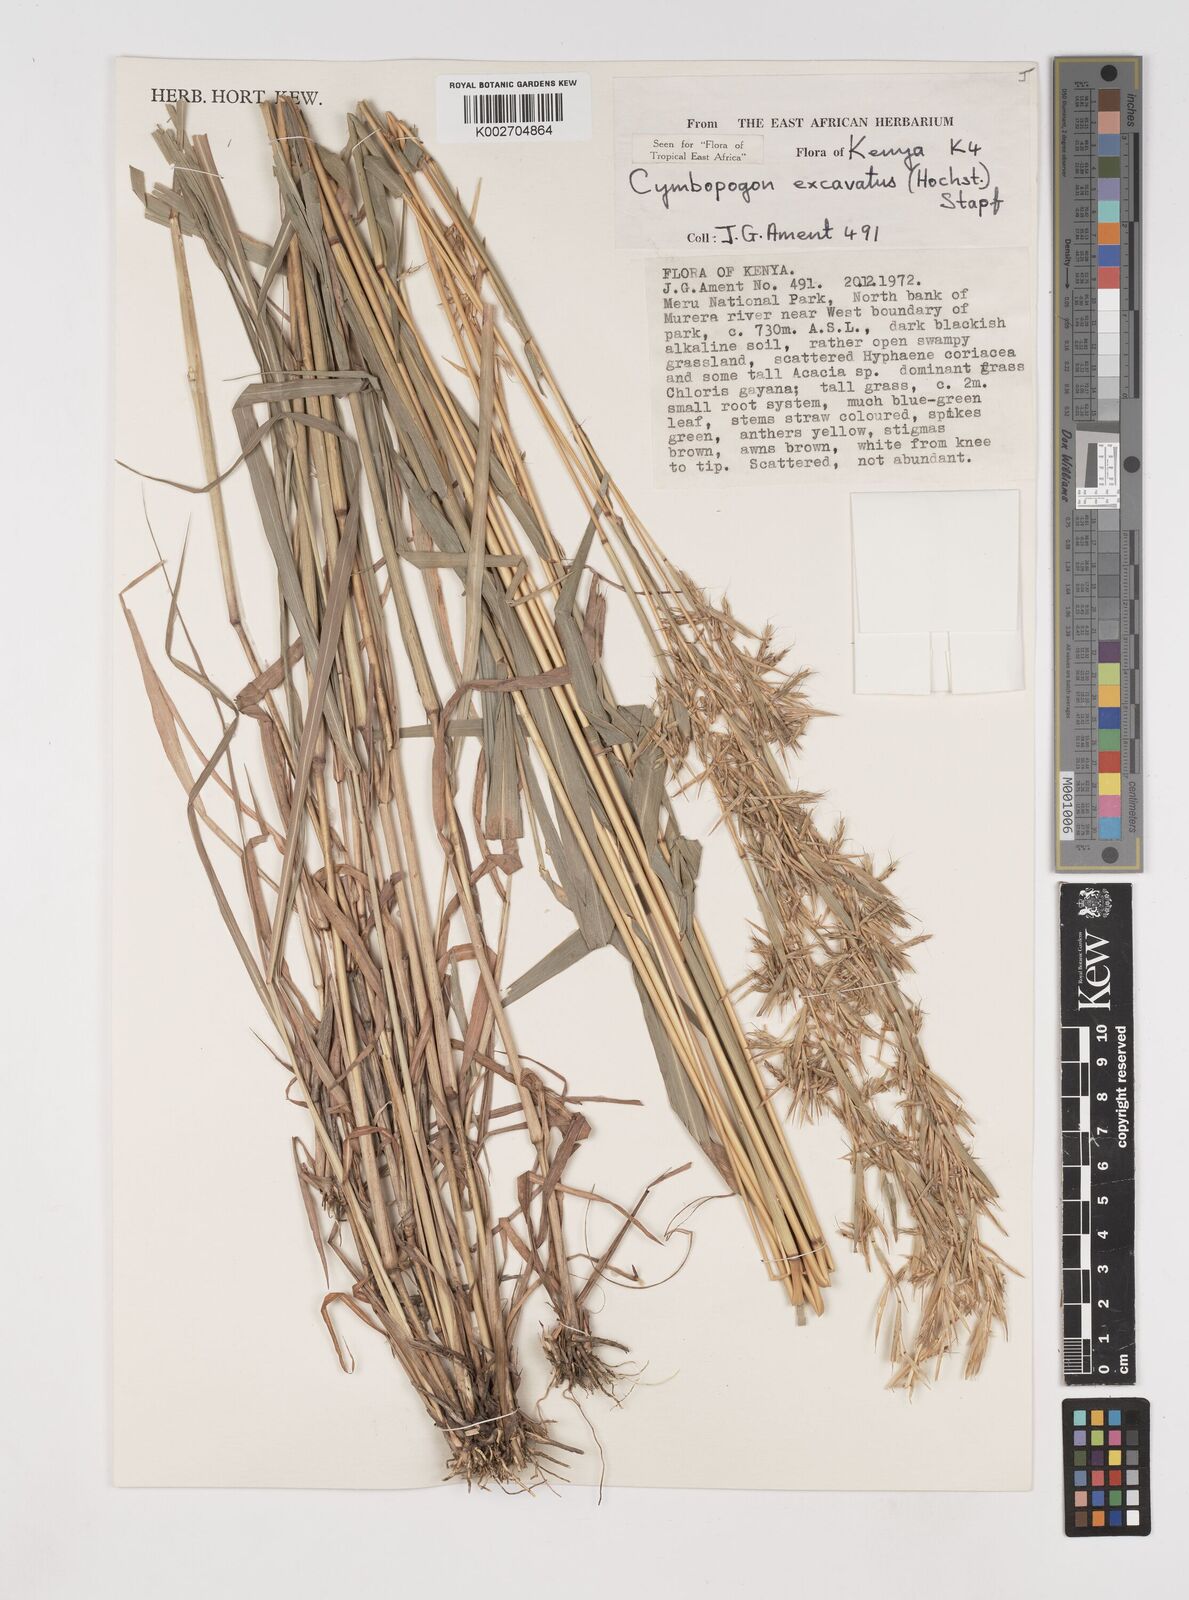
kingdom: Plantae
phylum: Tracheophyta
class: Liliopsida
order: Poales
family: Poaceae
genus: Cymbopogon
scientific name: Cymbopogon caesius
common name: Kachi grass
